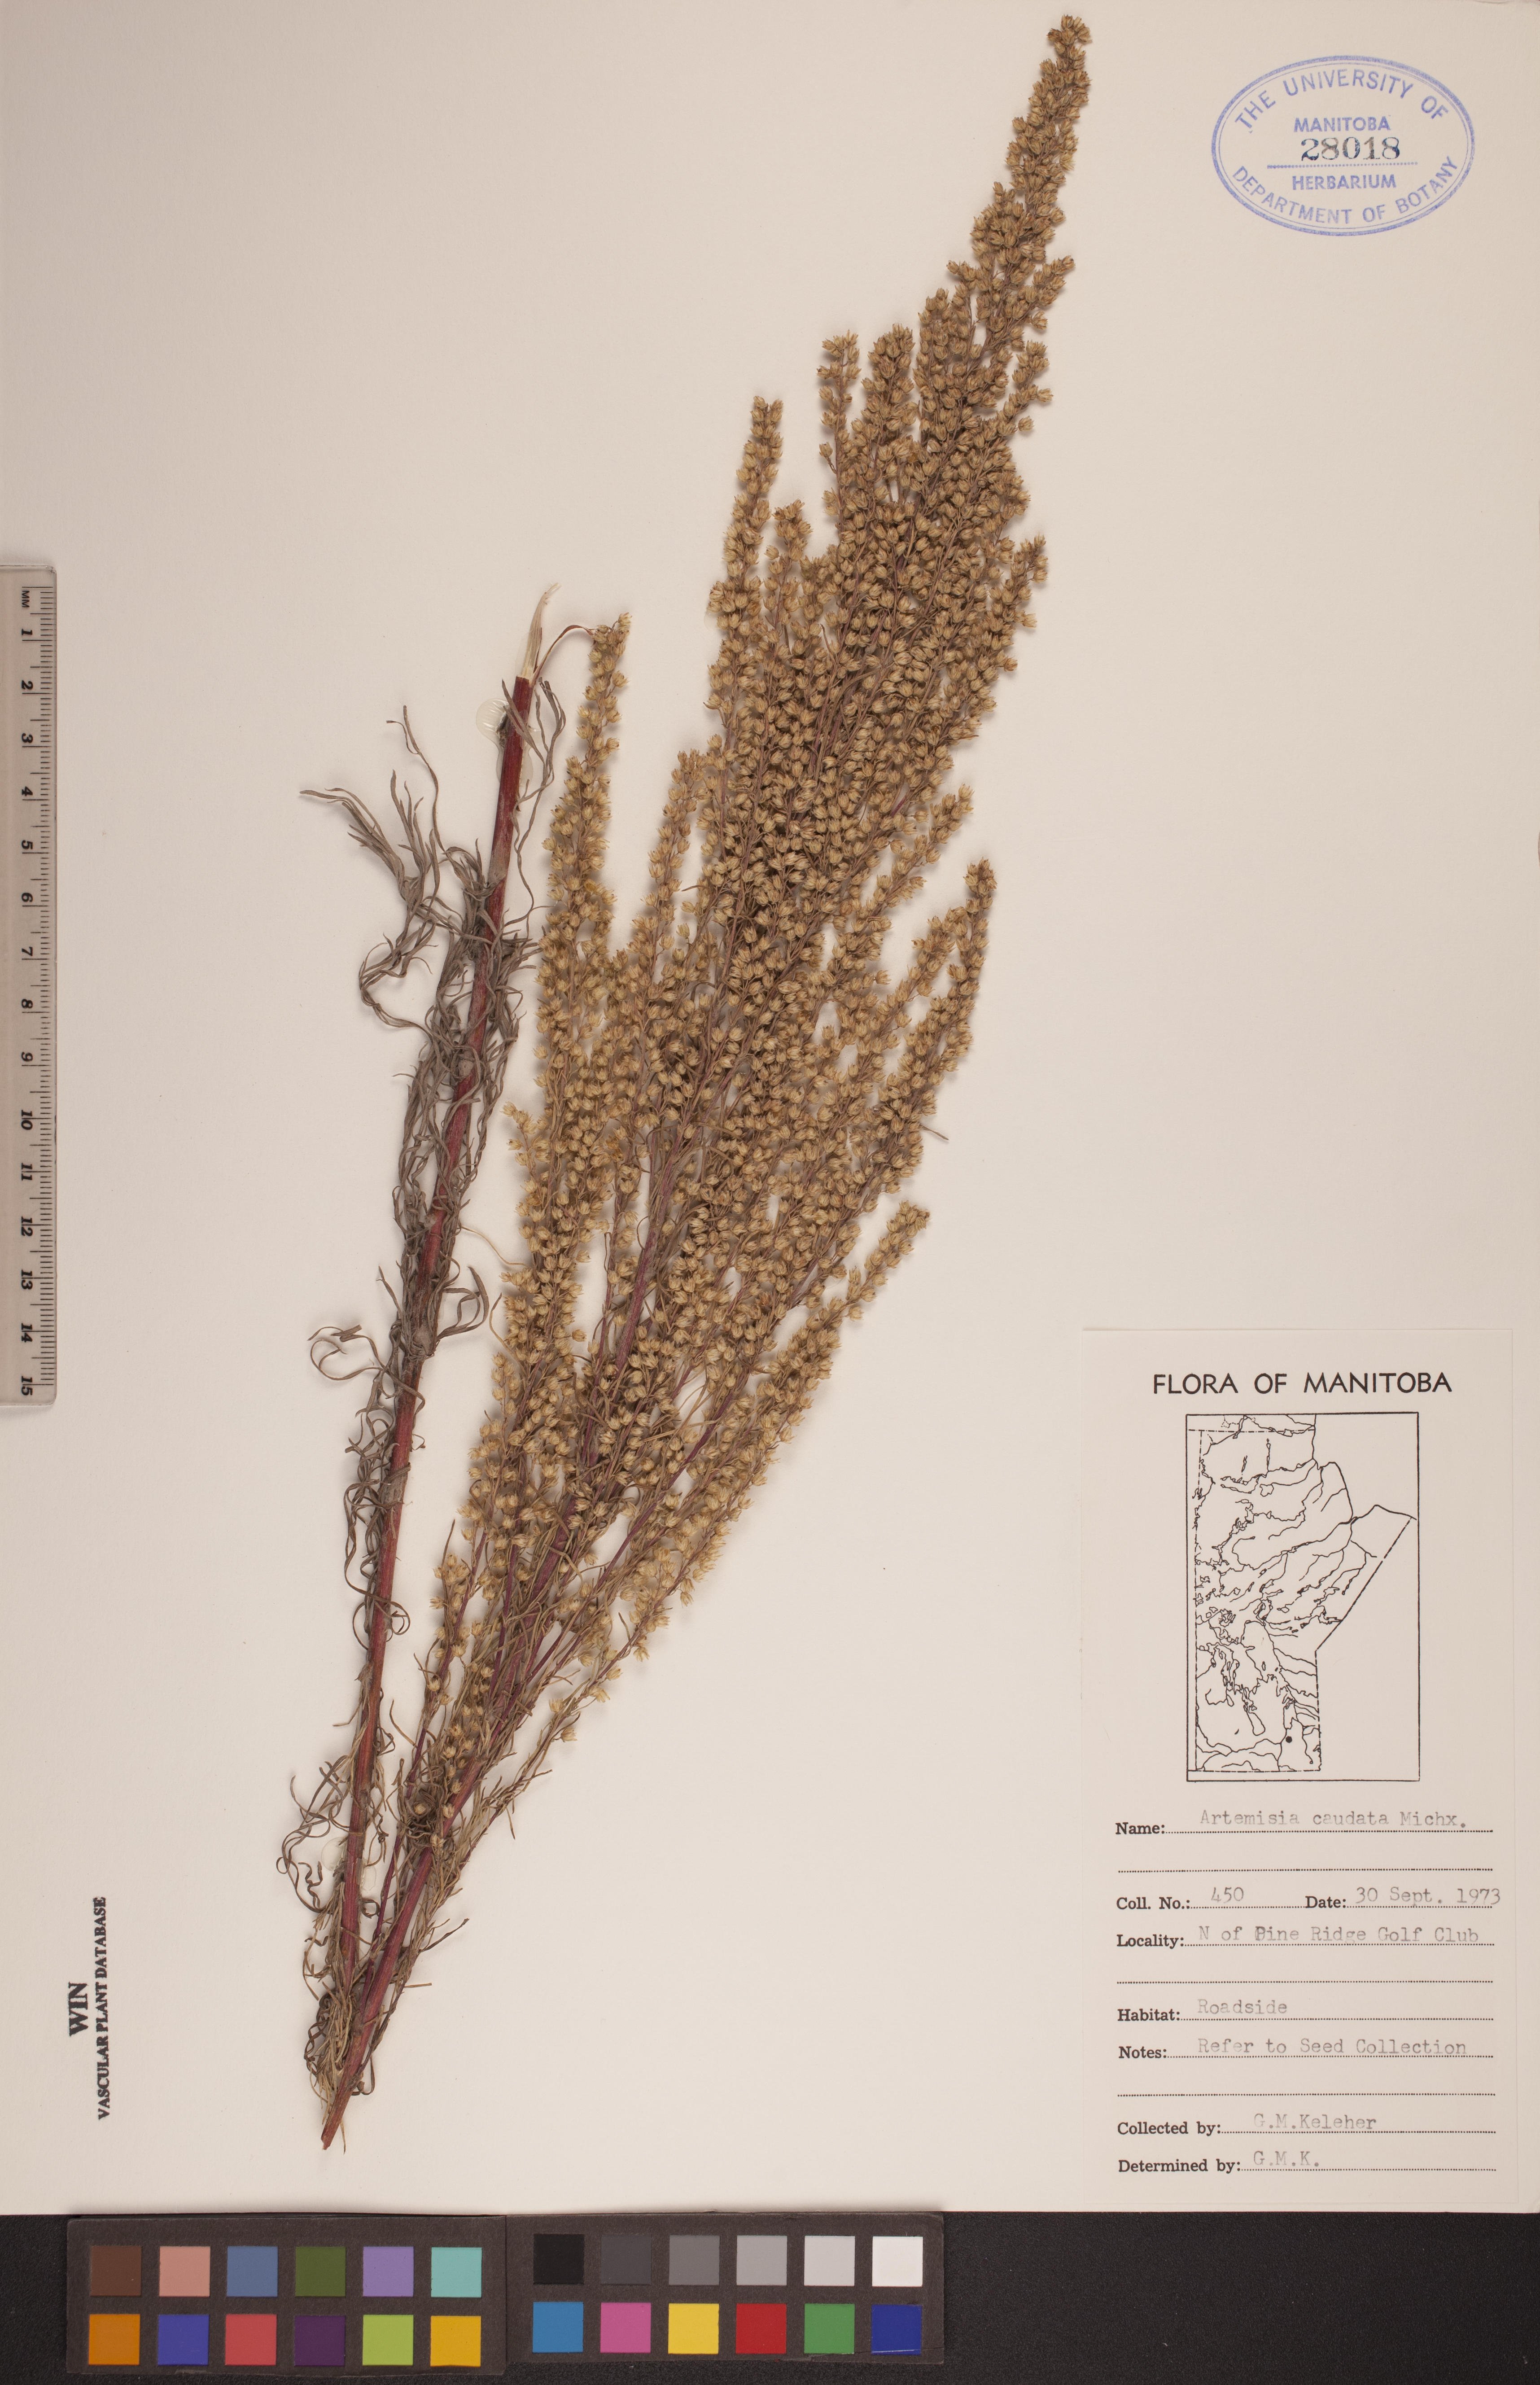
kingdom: Plantae
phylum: Tracheophyta
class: Magnoliopsida
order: Asterales
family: Asteraceae
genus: Artemisia
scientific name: Artemisia campestris
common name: Field wormwood
